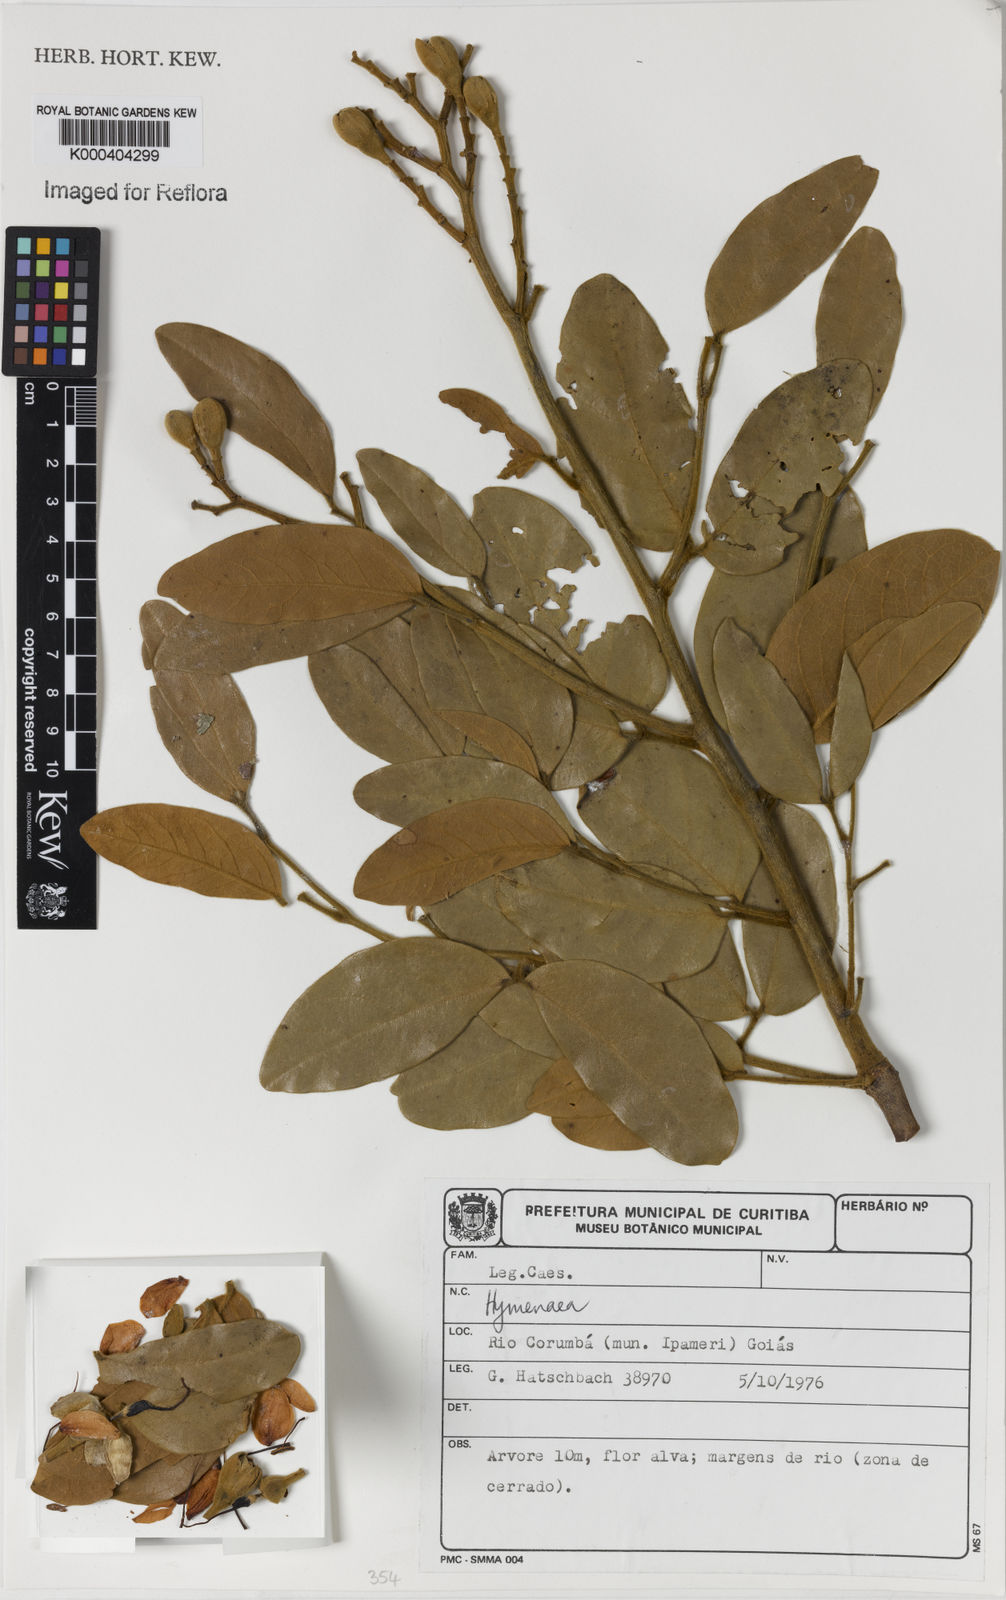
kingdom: Plantae
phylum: Tracheophyta
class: Magnoliopsida
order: Fabales
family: Fabaceae
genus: Hymenaea
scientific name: Hymenaea
